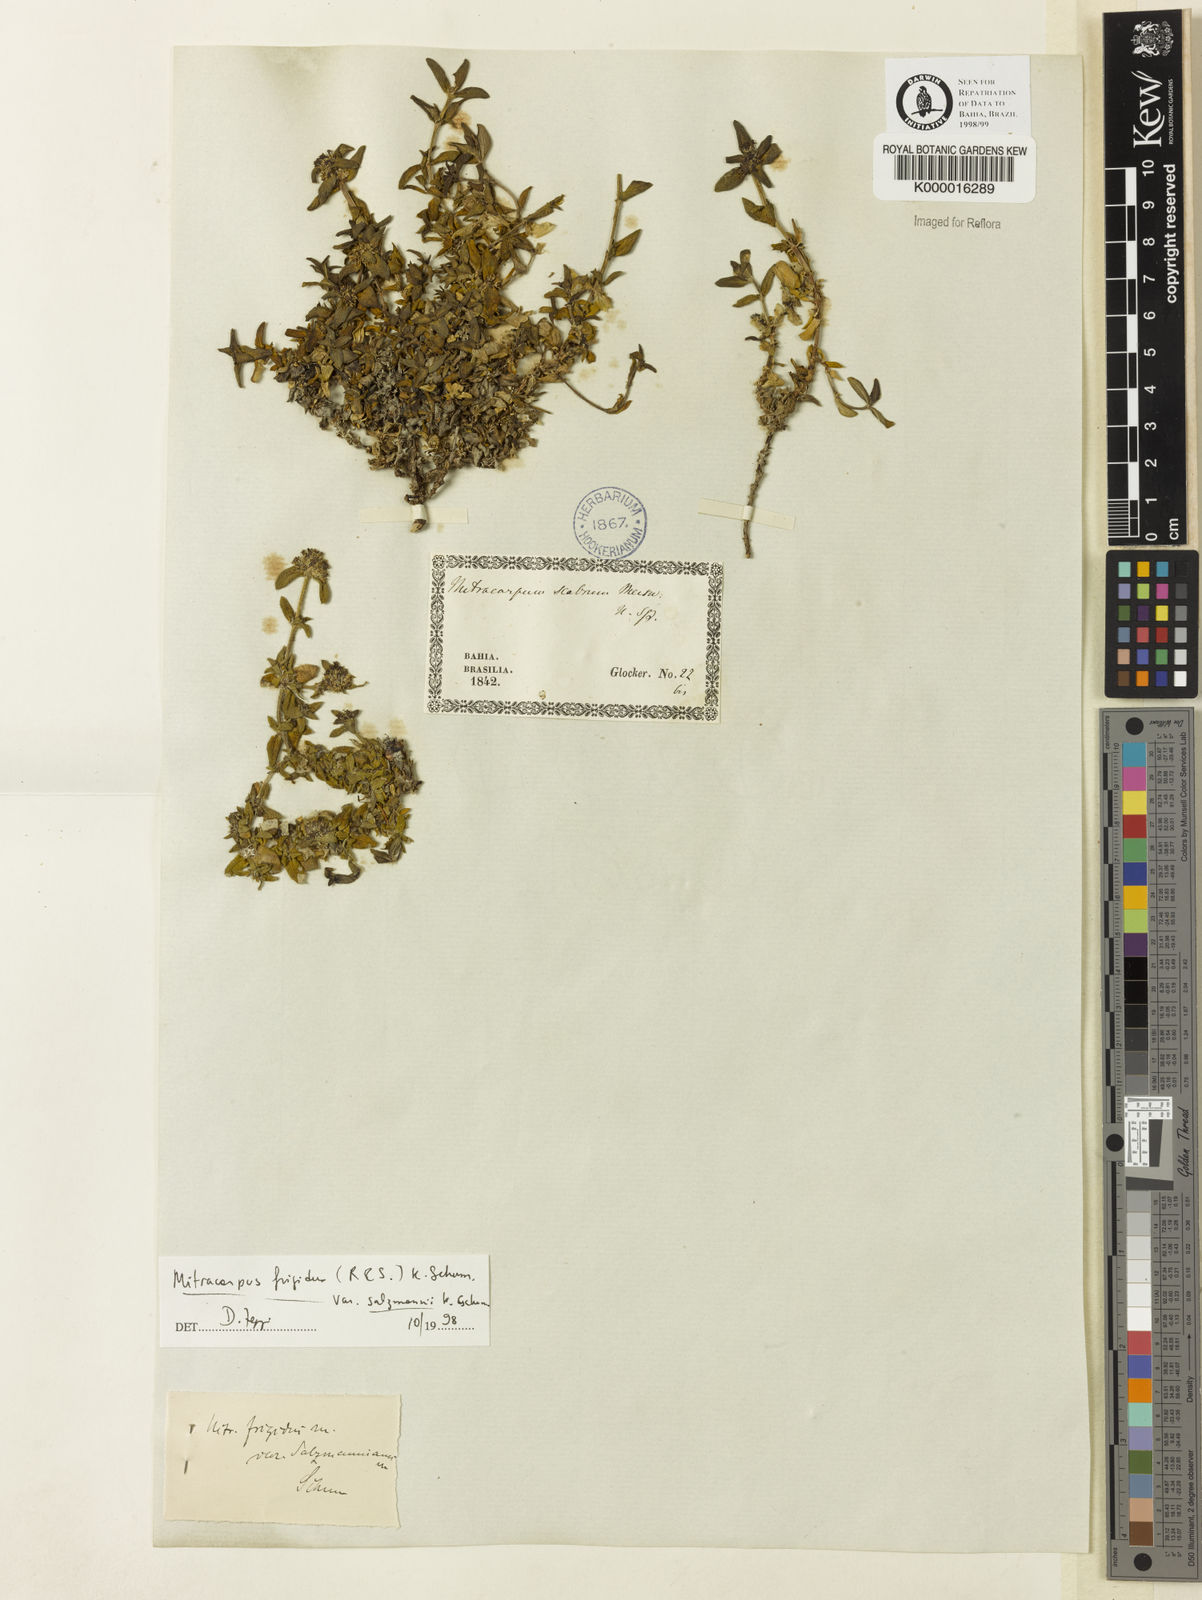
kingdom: Plantae
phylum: Tracheophyta
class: Magnoliopsida
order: Gentianales
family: Rubiaceae
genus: Mitracarpus
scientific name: Mitracarpus salzmannianus
